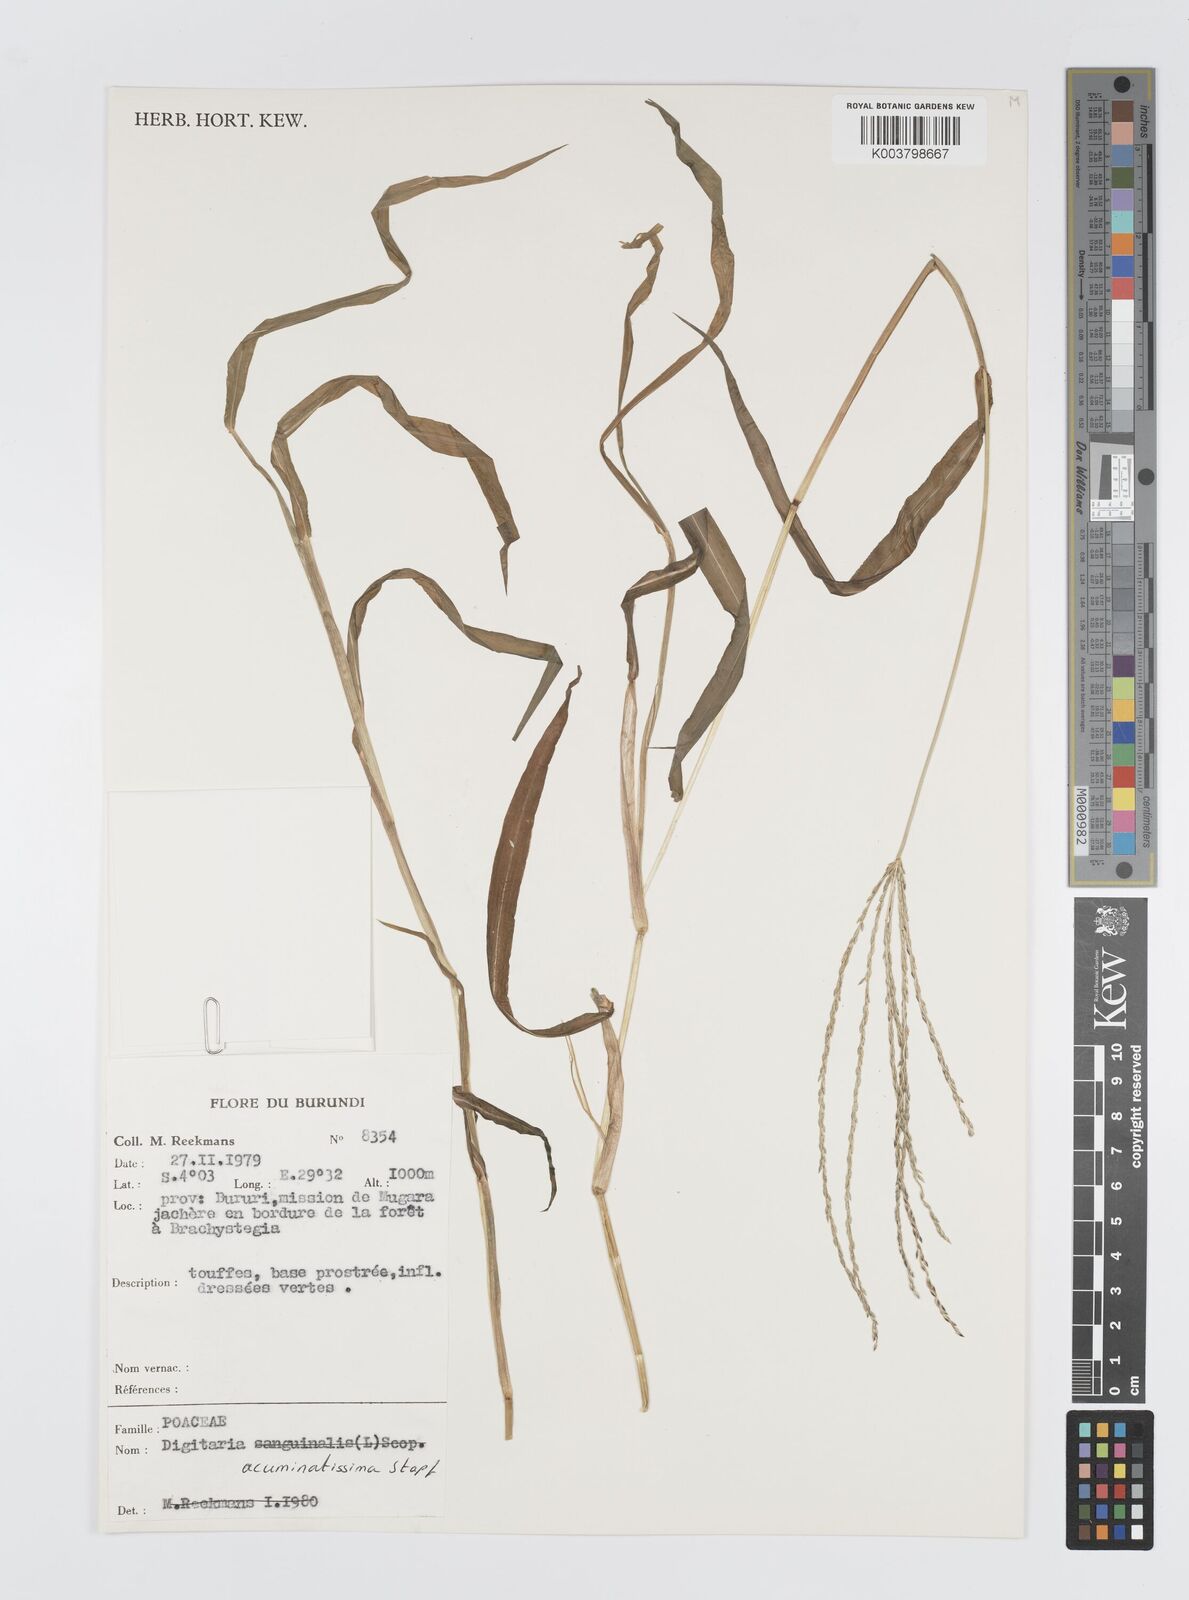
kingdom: Plantae
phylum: Tracheophyta
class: Liliopsida
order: Poales
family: Poaceae
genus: Digitaria
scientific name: Digitaria acuminatissima
